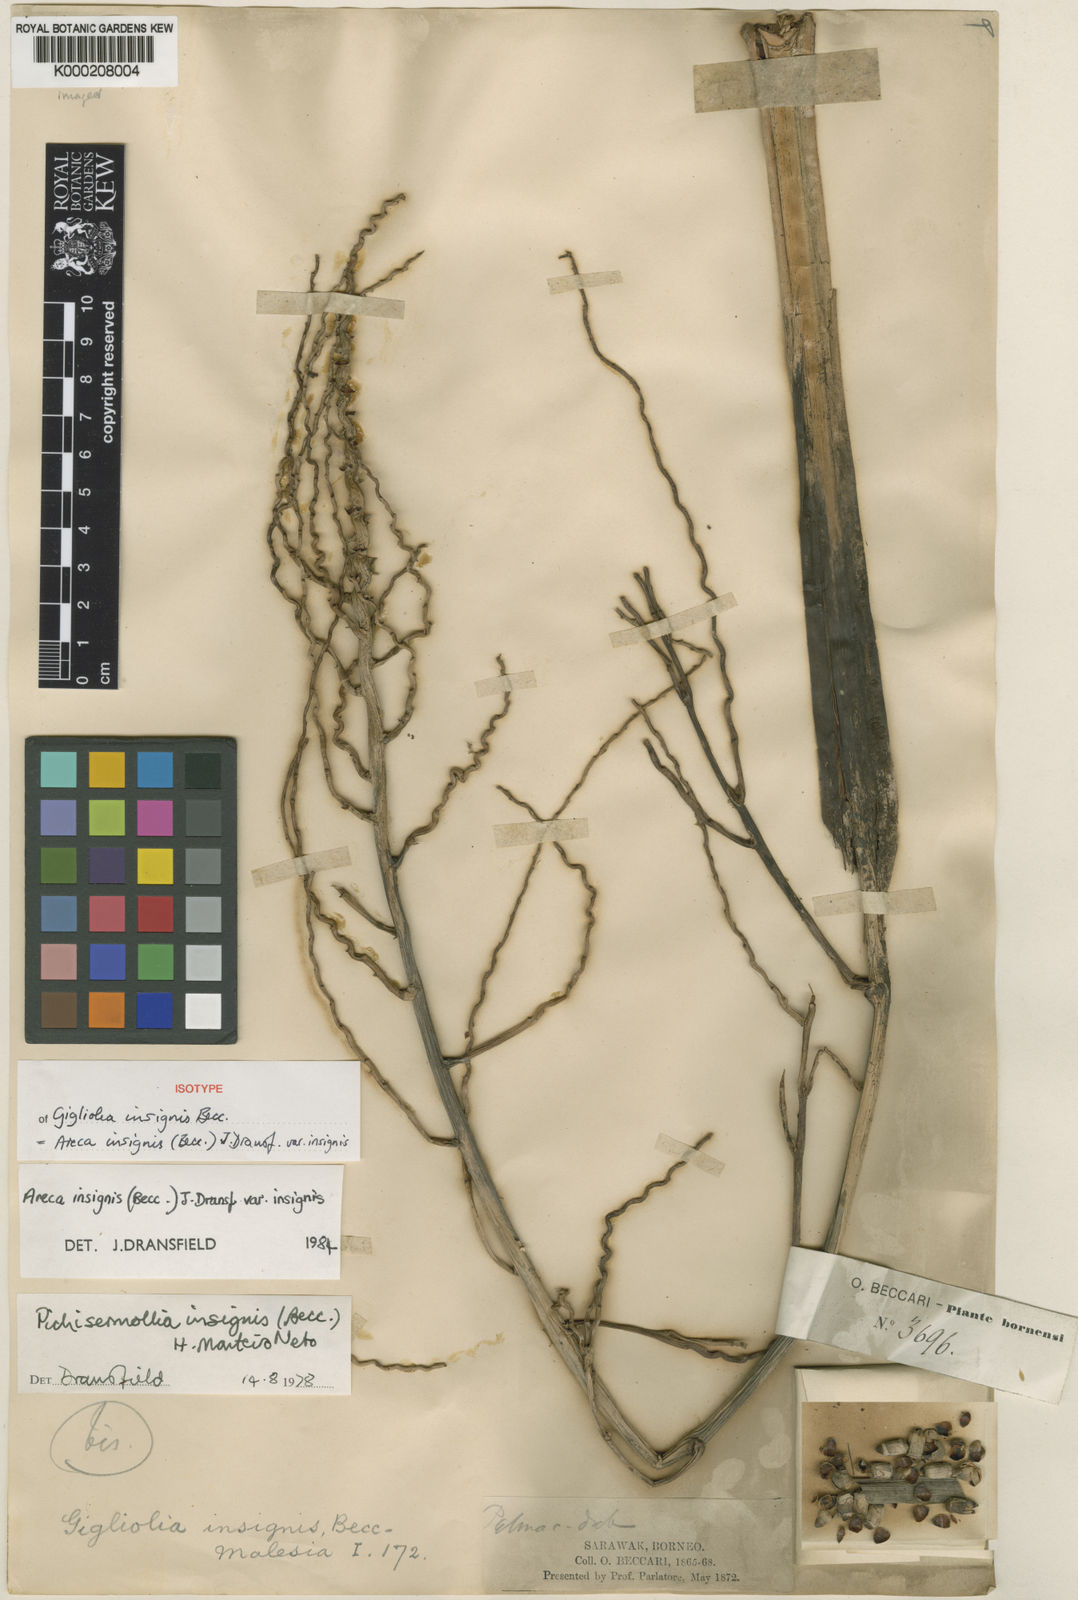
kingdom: Plantae
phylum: Tracheophyta
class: Liliopsida
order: Arecales
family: Arecaceae
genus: Areca
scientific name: Areca insignis
